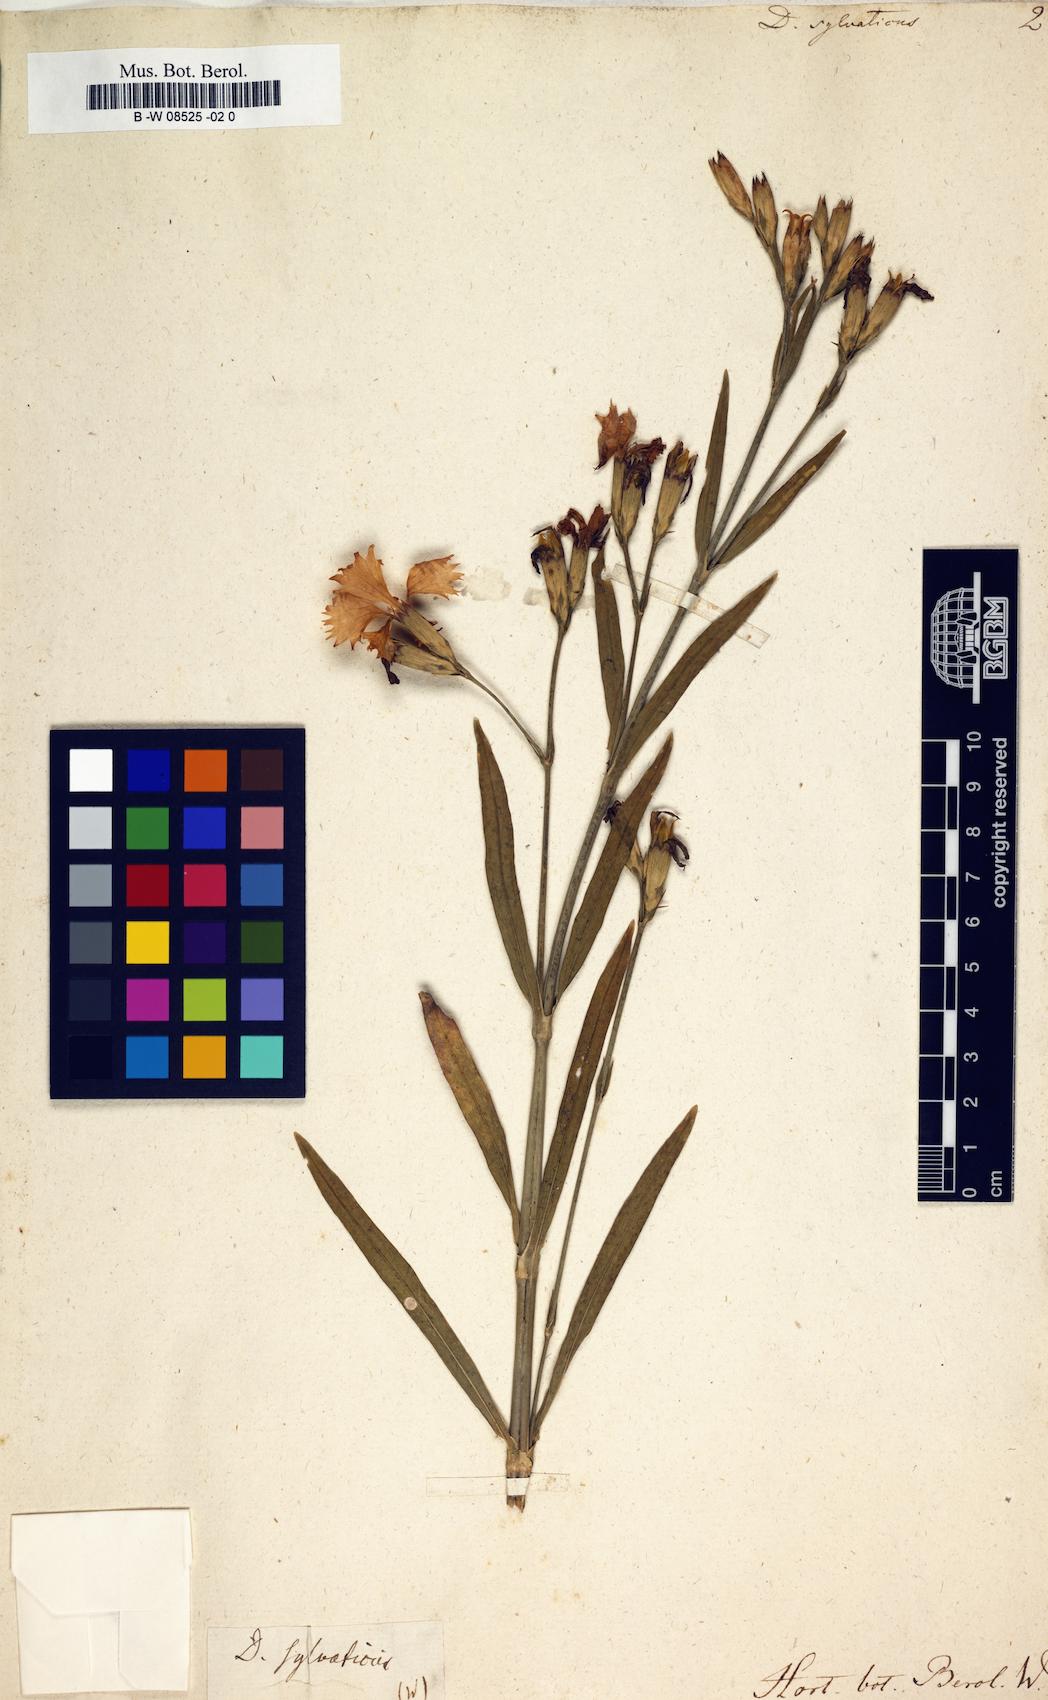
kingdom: Plantae
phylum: Tracheophyta
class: Magnoliopsida
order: Caryophyllales
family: Caryophyllaceae
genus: Dianthus
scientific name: Dianthus sylvaticus
